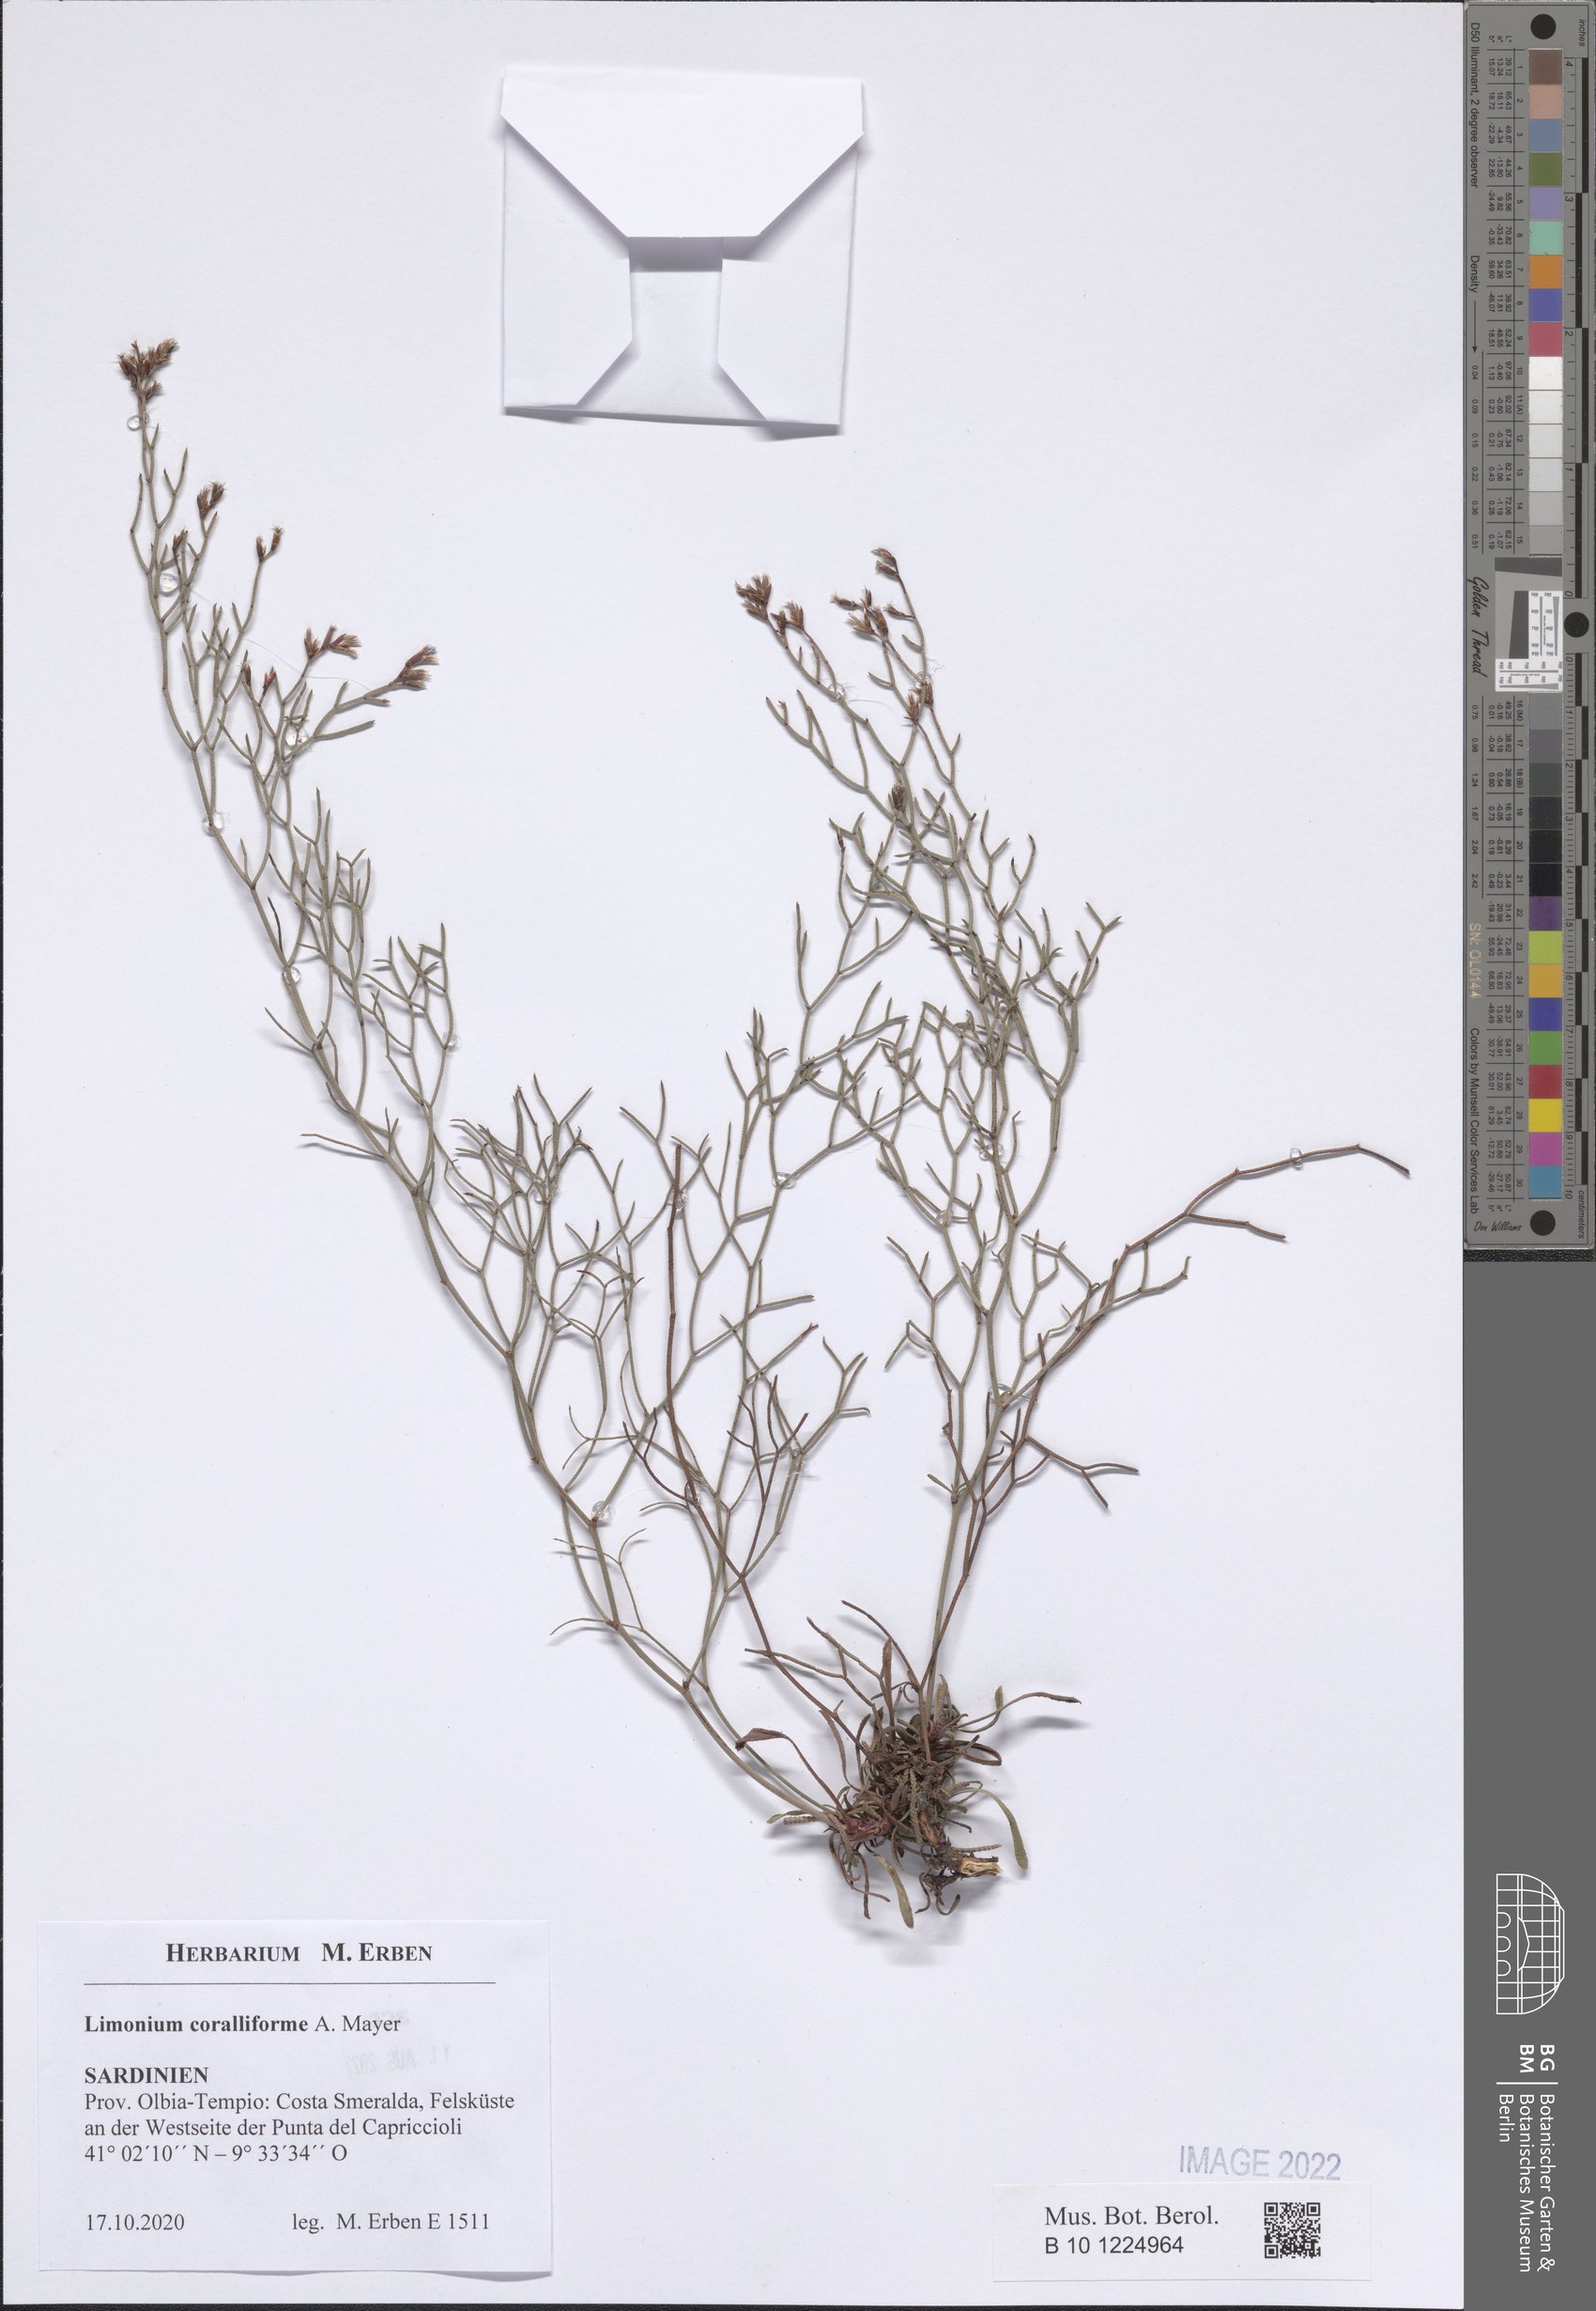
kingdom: Plantae
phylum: Tracheophyta
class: Magnoliopsida
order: Caryophyllales
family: Plumbaginaceae
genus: Limonium
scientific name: Limonium coralliforme
